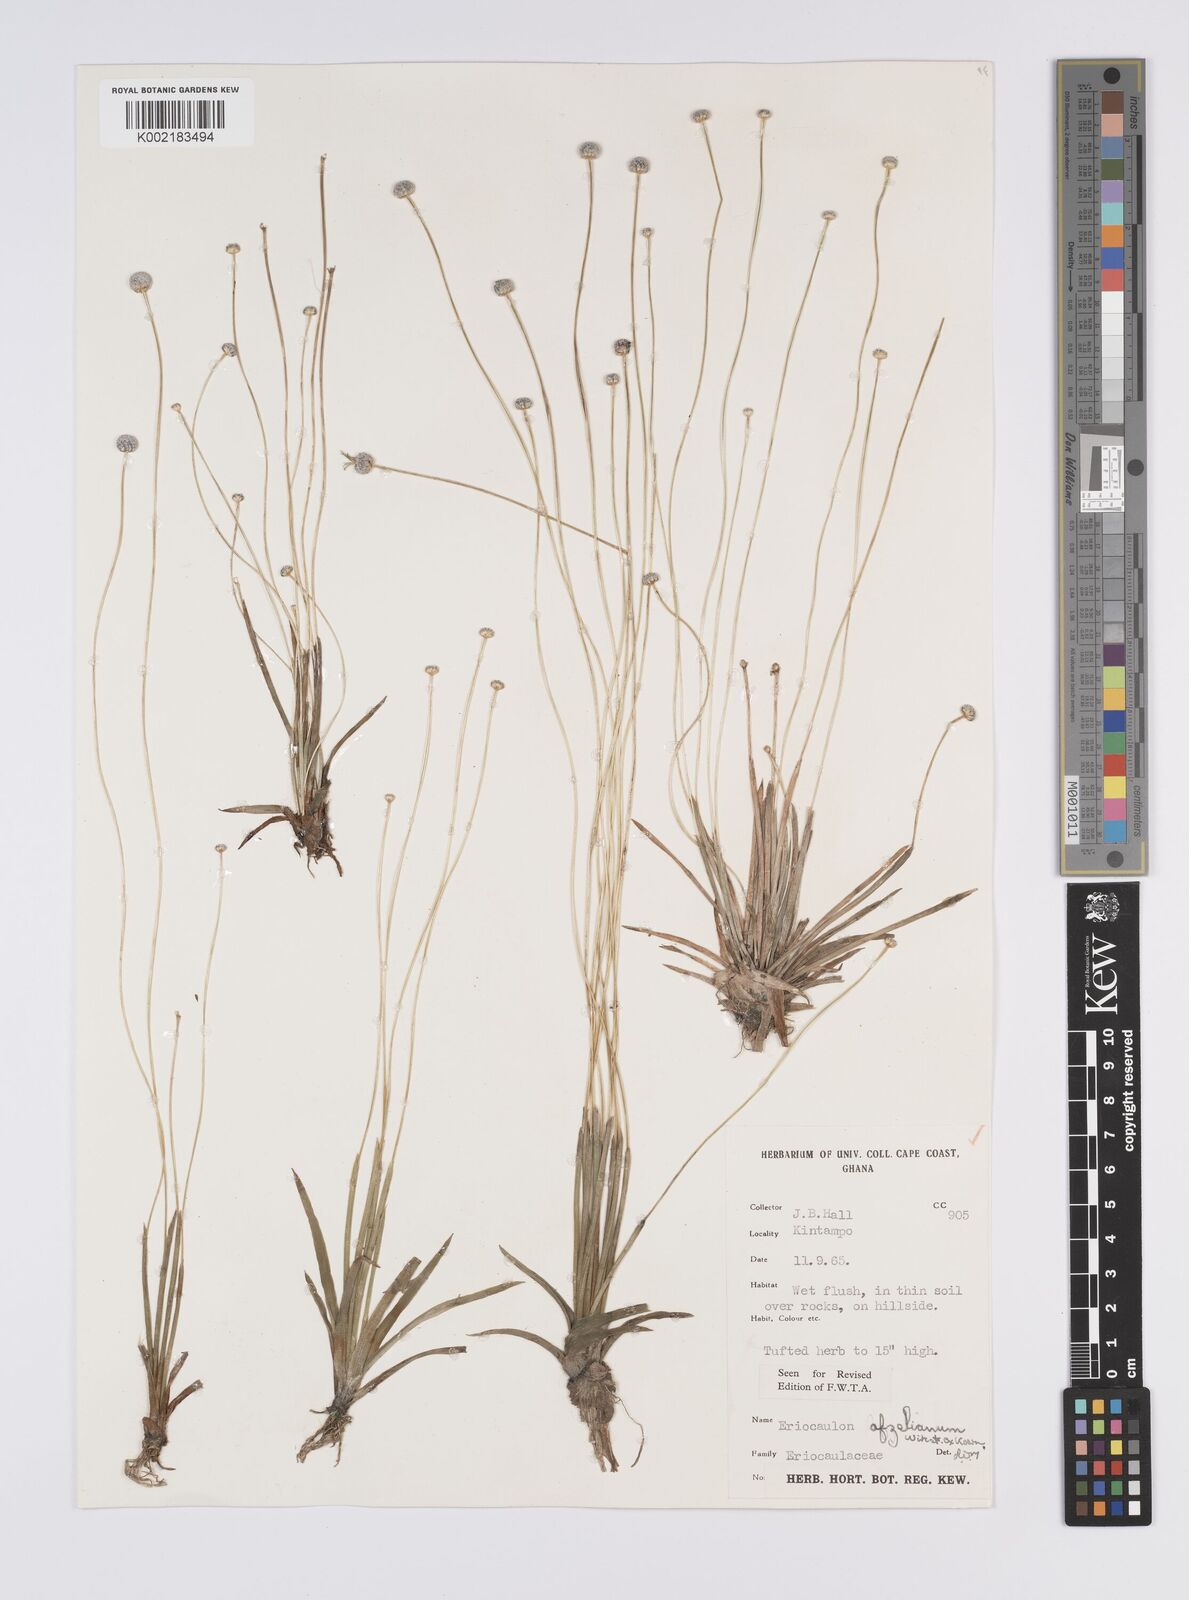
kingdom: Plantae
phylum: Tracheophyta
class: Liliopsida
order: Poales
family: Eriocaulaceae
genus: Eriocaulon
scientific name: Eriocaulon afzelianum
